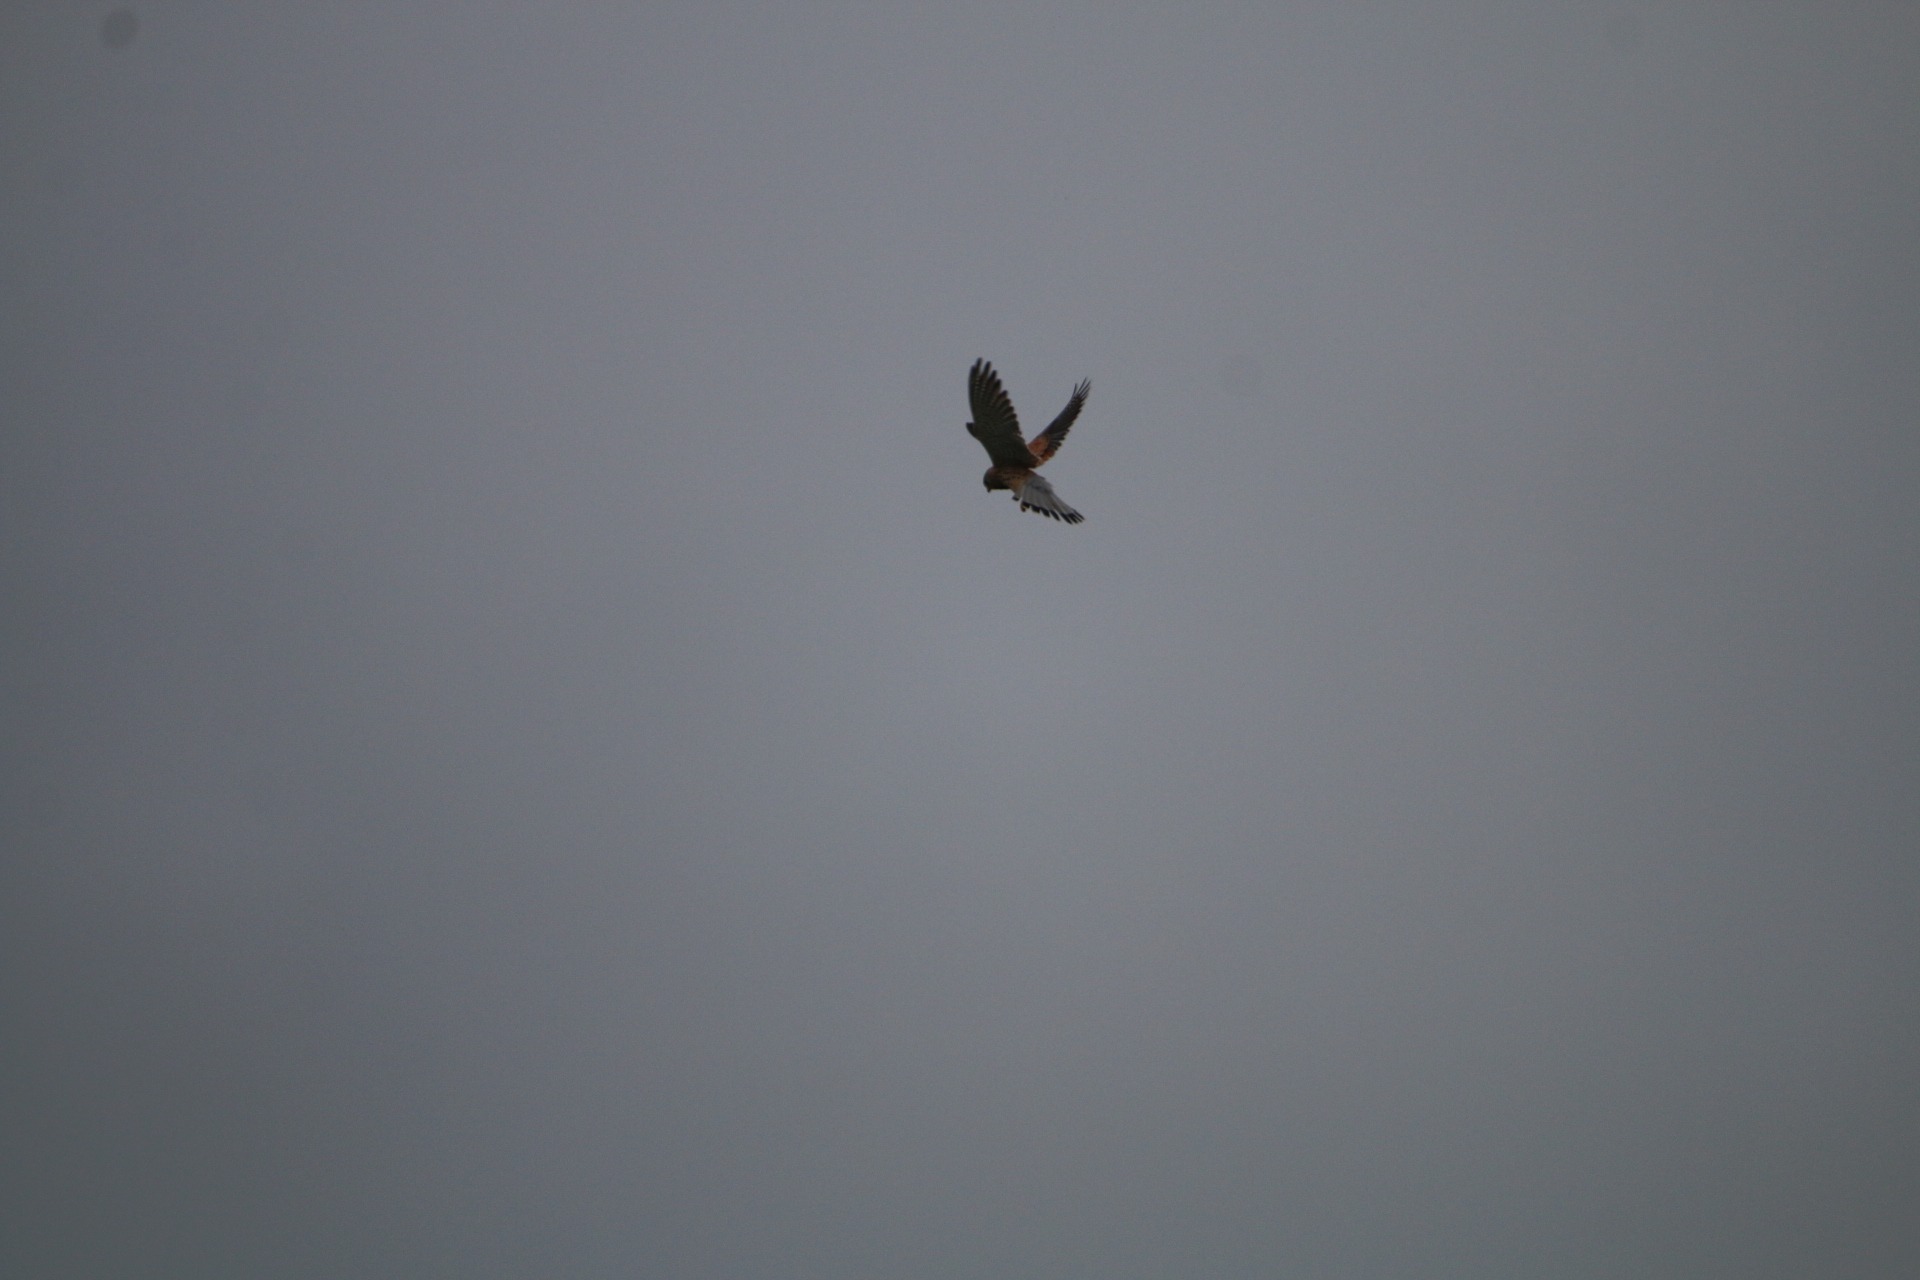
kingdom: Animalia
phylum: Chordata
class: Aves
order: Falconiformes
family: Falconidae
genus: Falco
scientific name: Falco tinnunculus
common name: Tårnfalk
